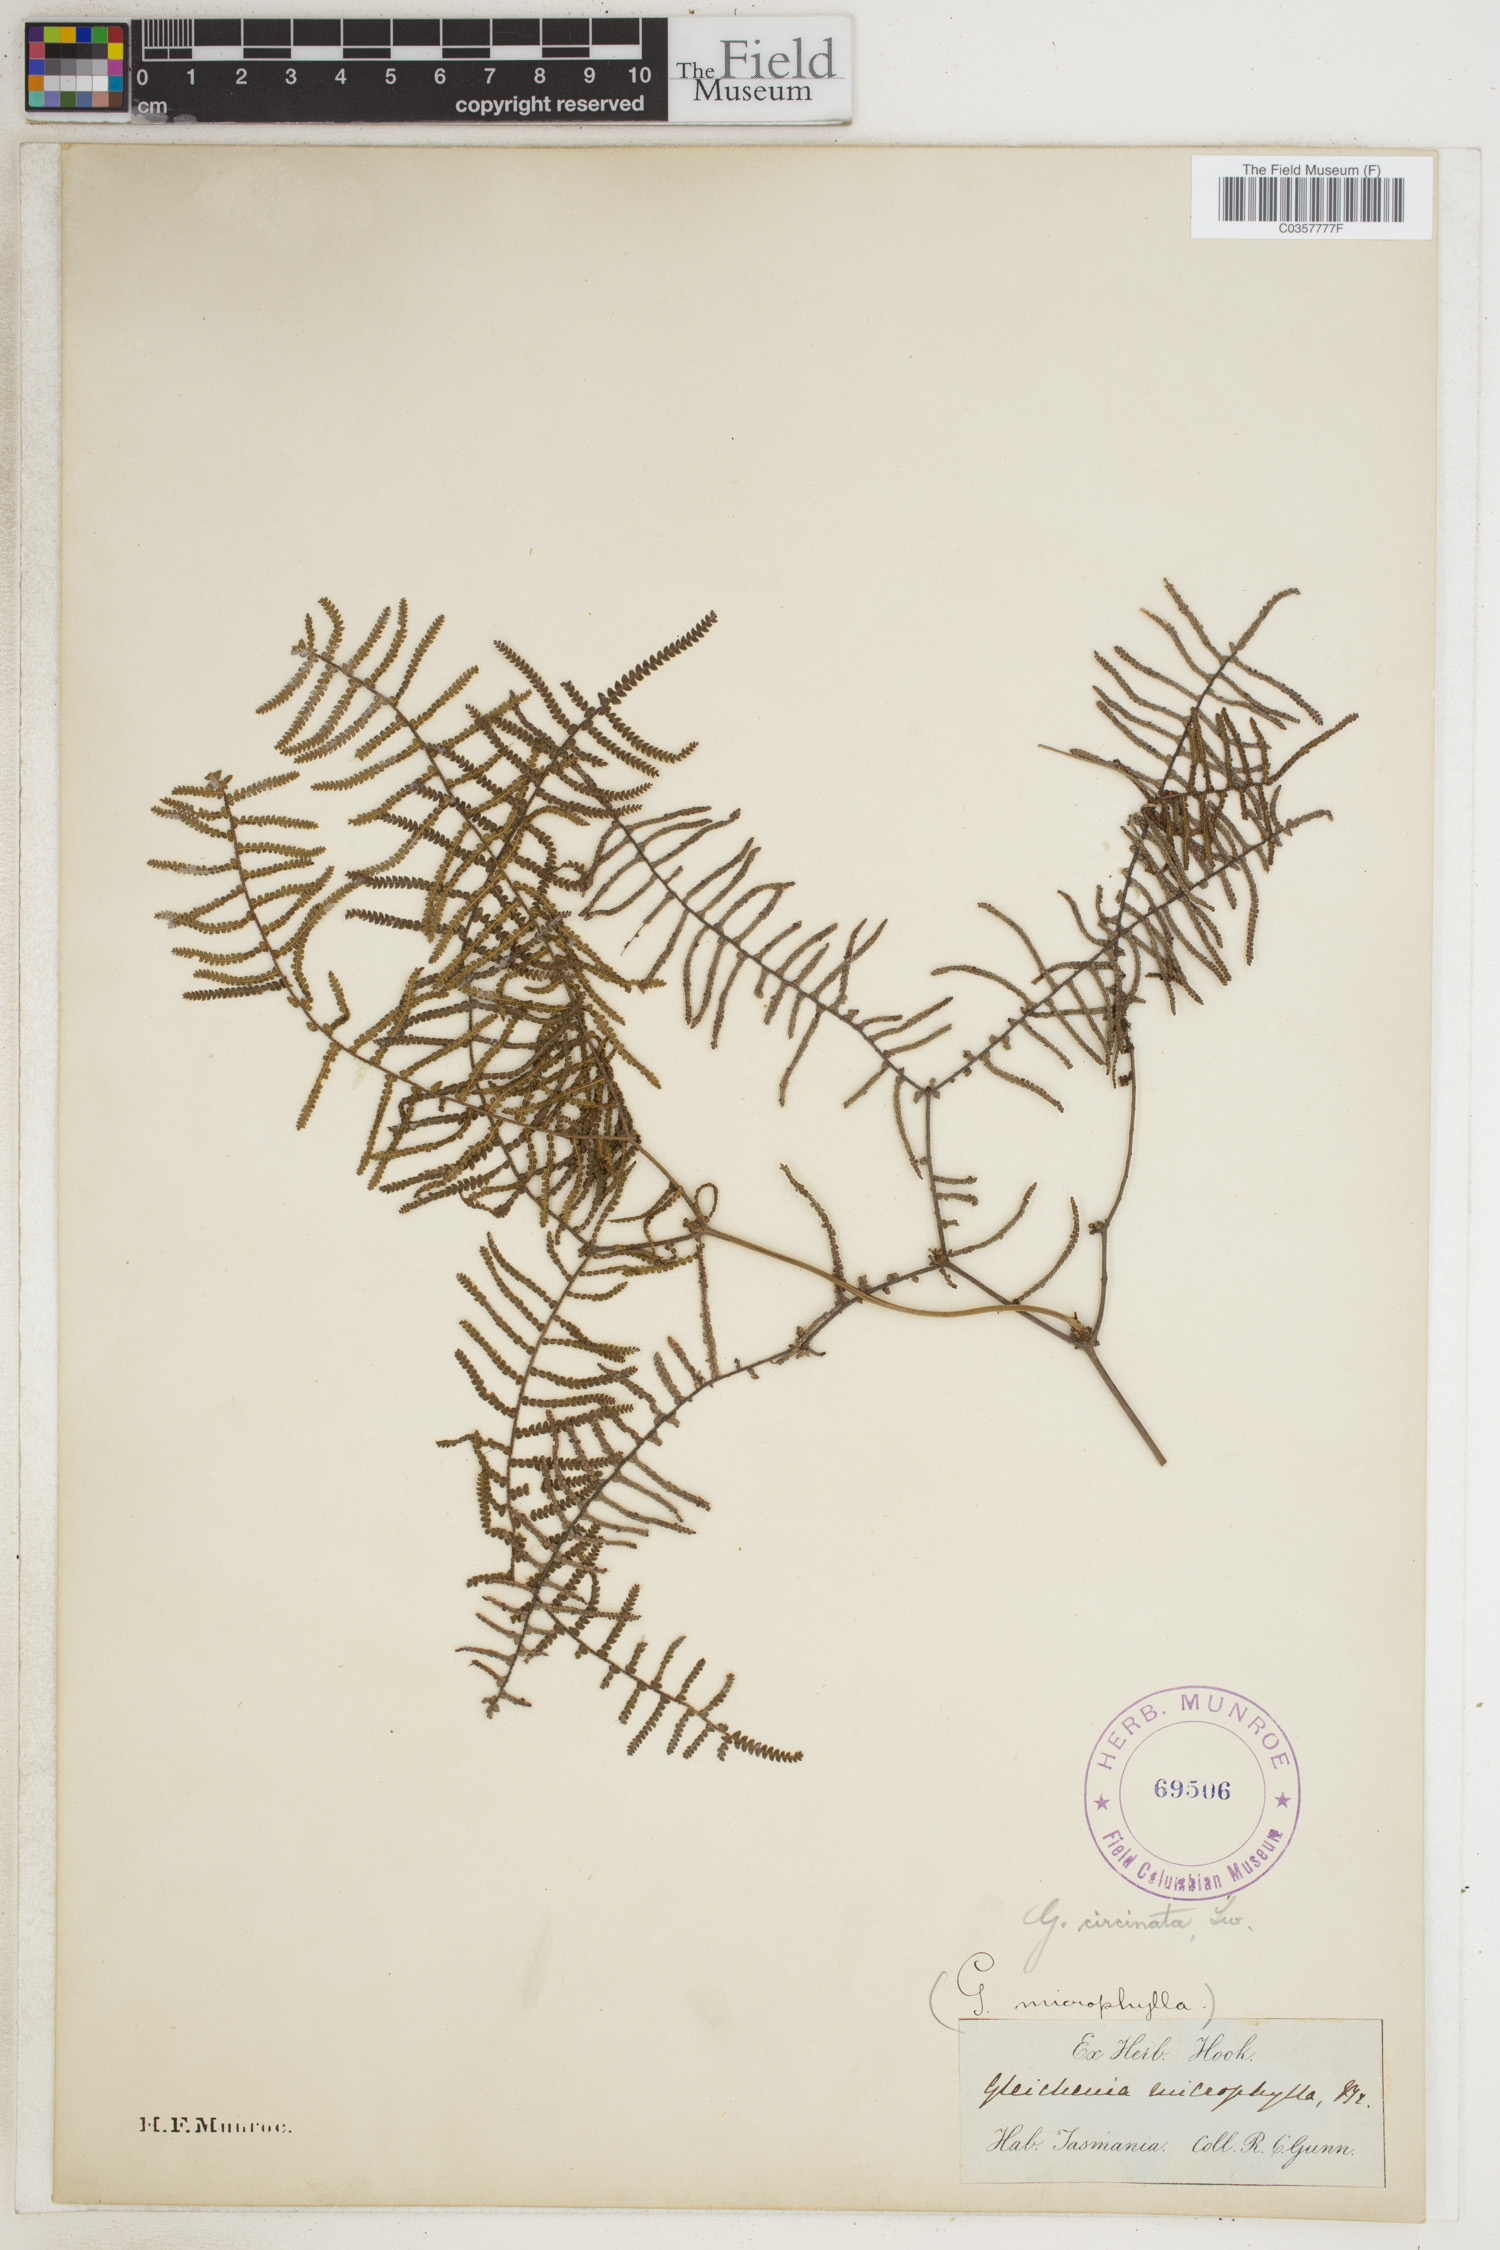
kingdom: Plantae
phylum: Tracheophyta
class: Polypodiopsida
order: Gleicheniales
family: Gleicheniaceae
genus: Gleichenia
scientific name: Gleichenia circinnata
